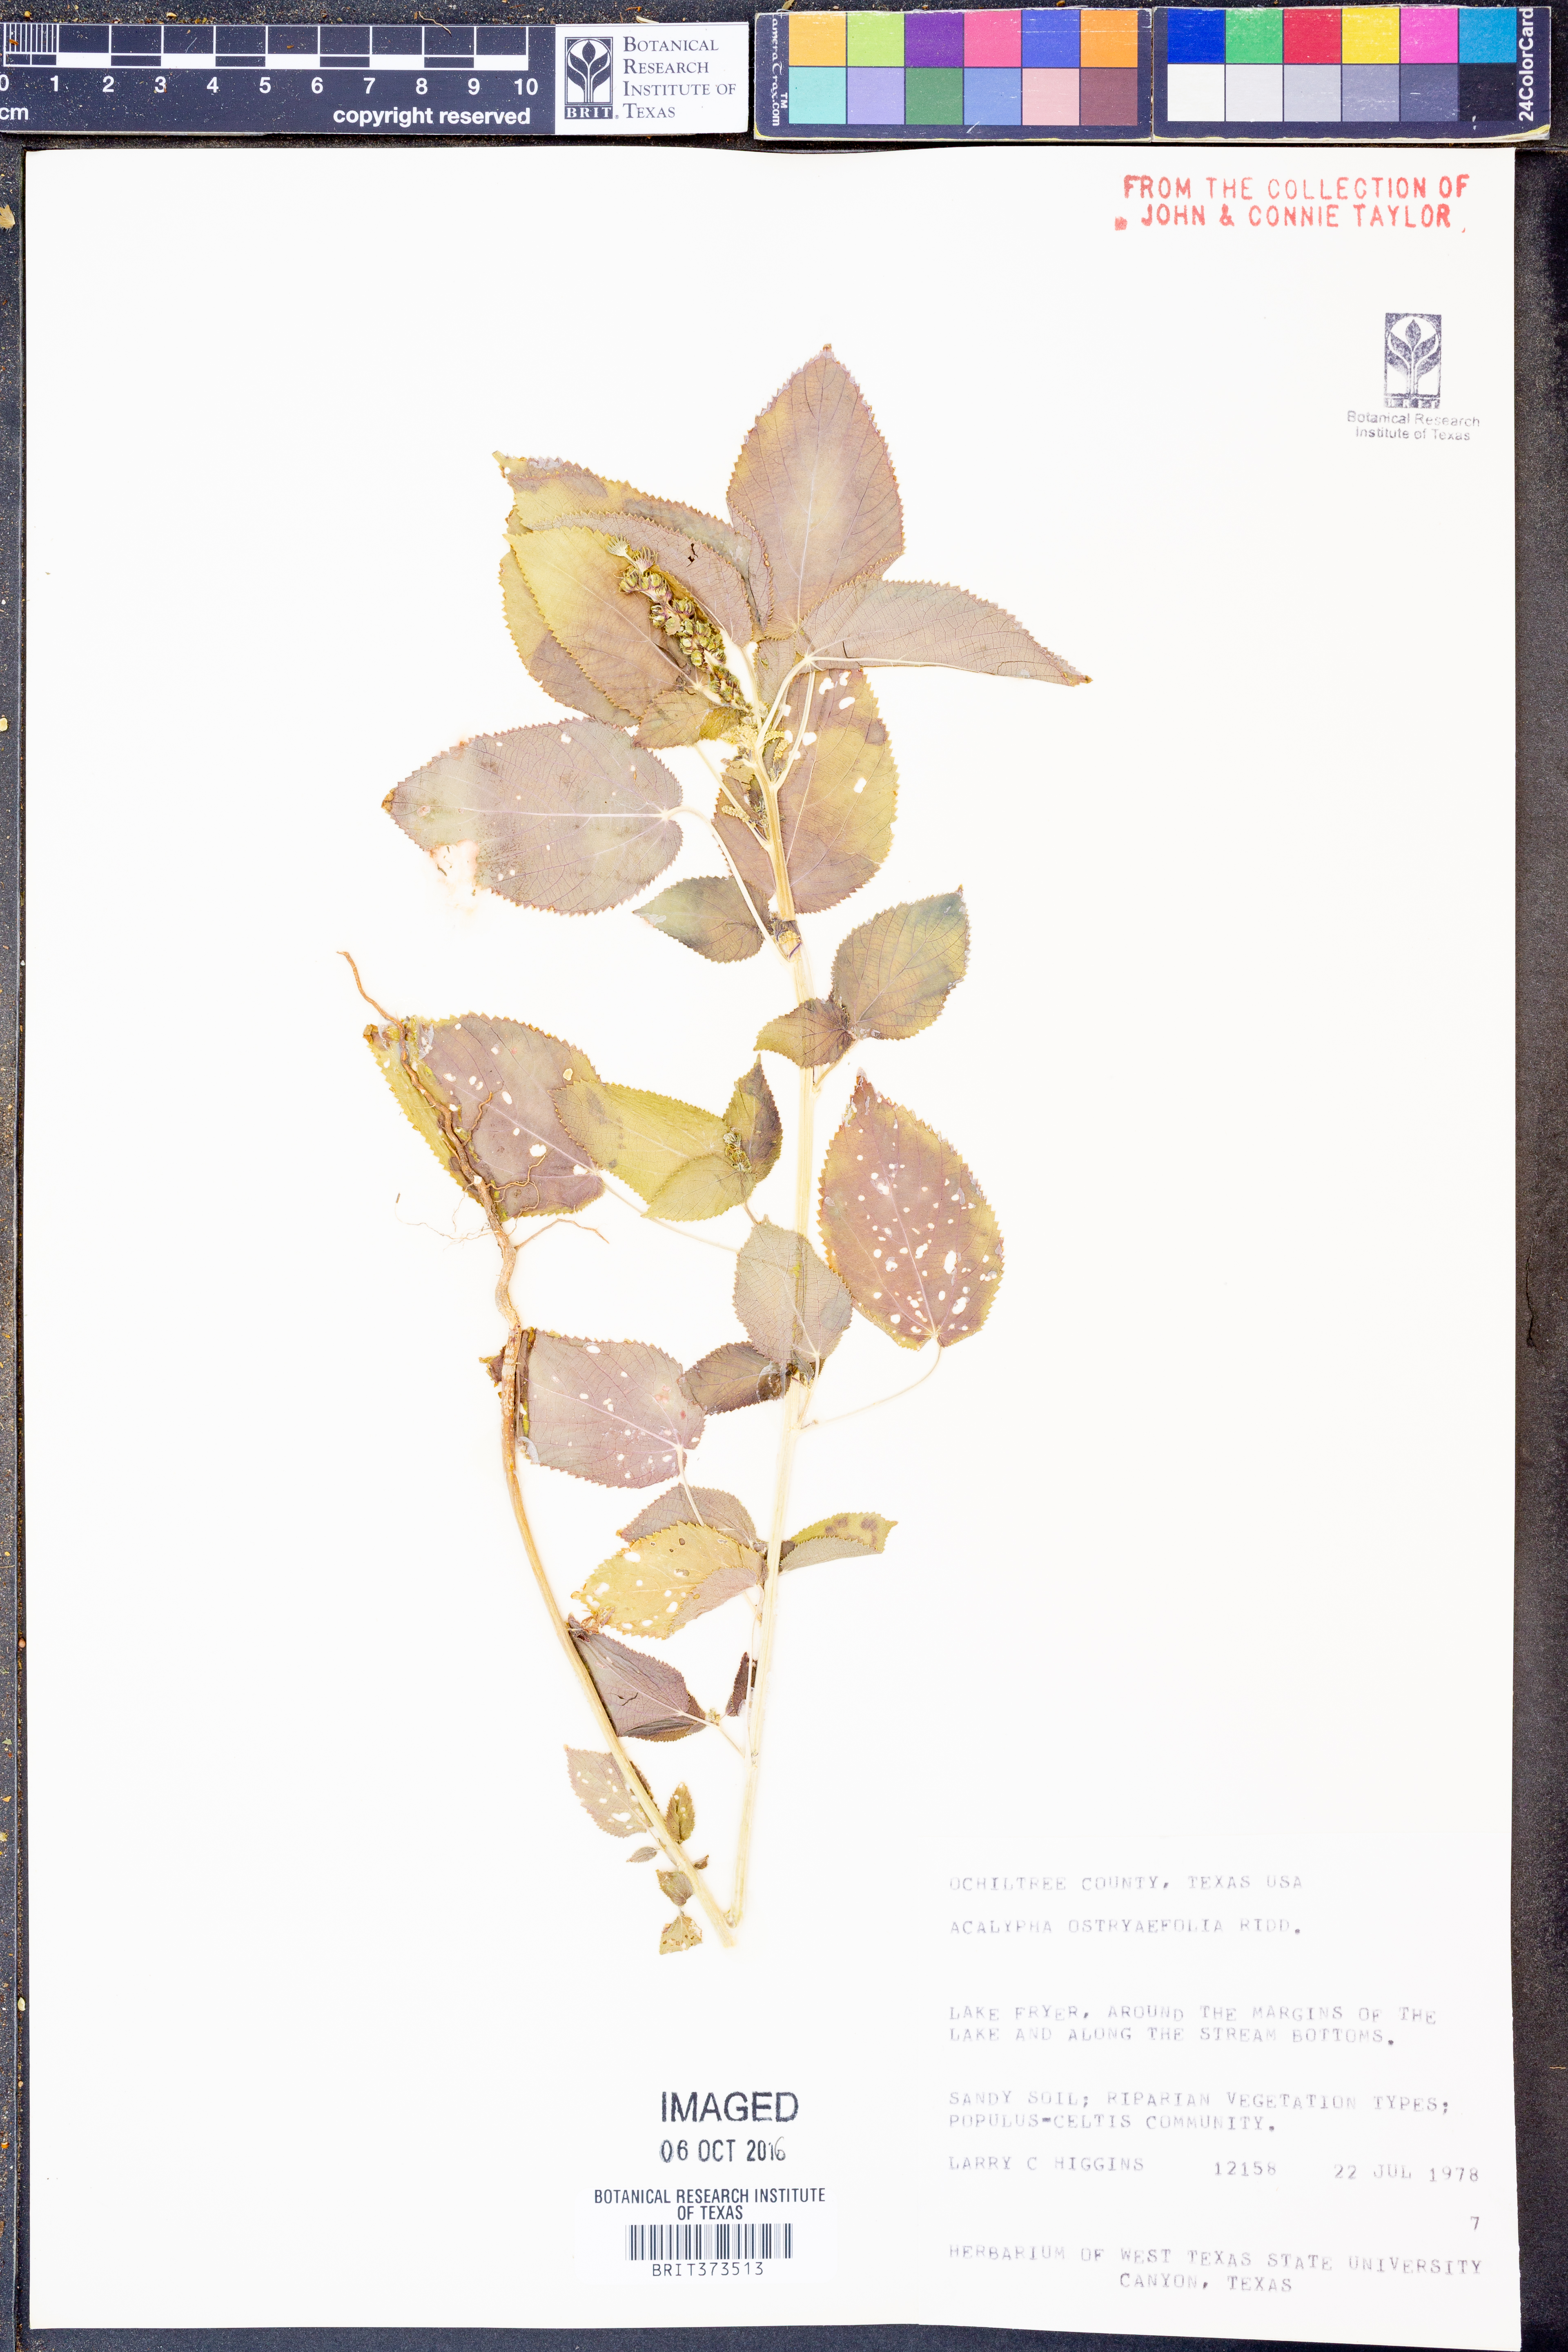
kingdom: Plantae
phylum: Tracheophyta
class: Magnoliopsida
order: Malpighiales
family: Euphorbiaceae
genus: Acalypha
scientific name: Acalypha ostryifolia
